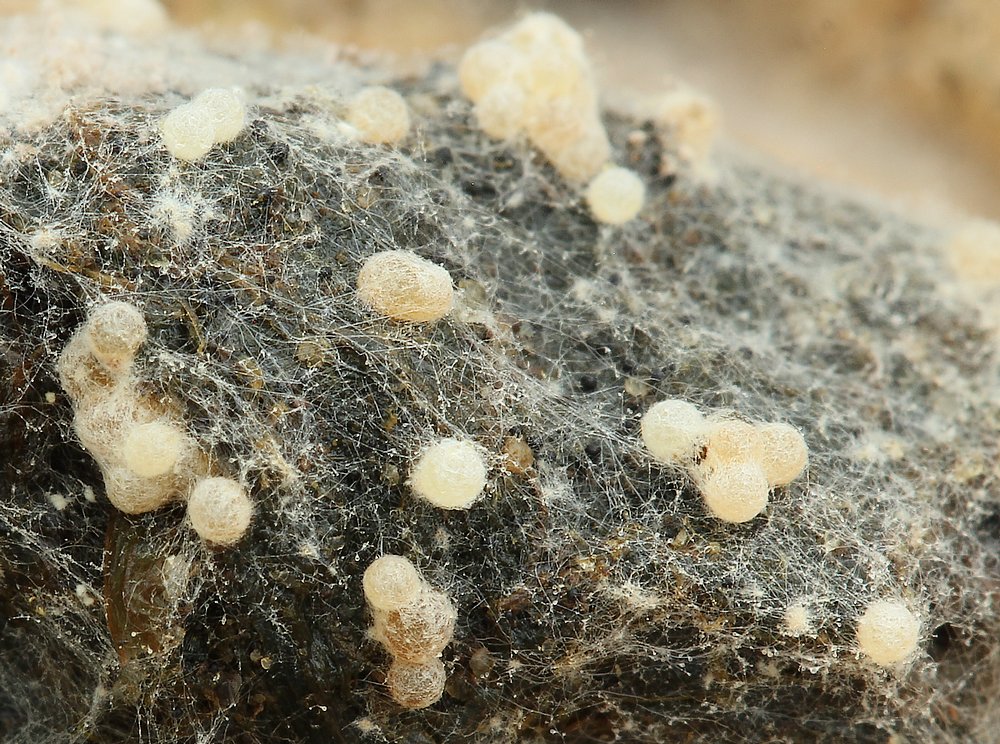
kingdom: Fungi
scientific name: Fungi
